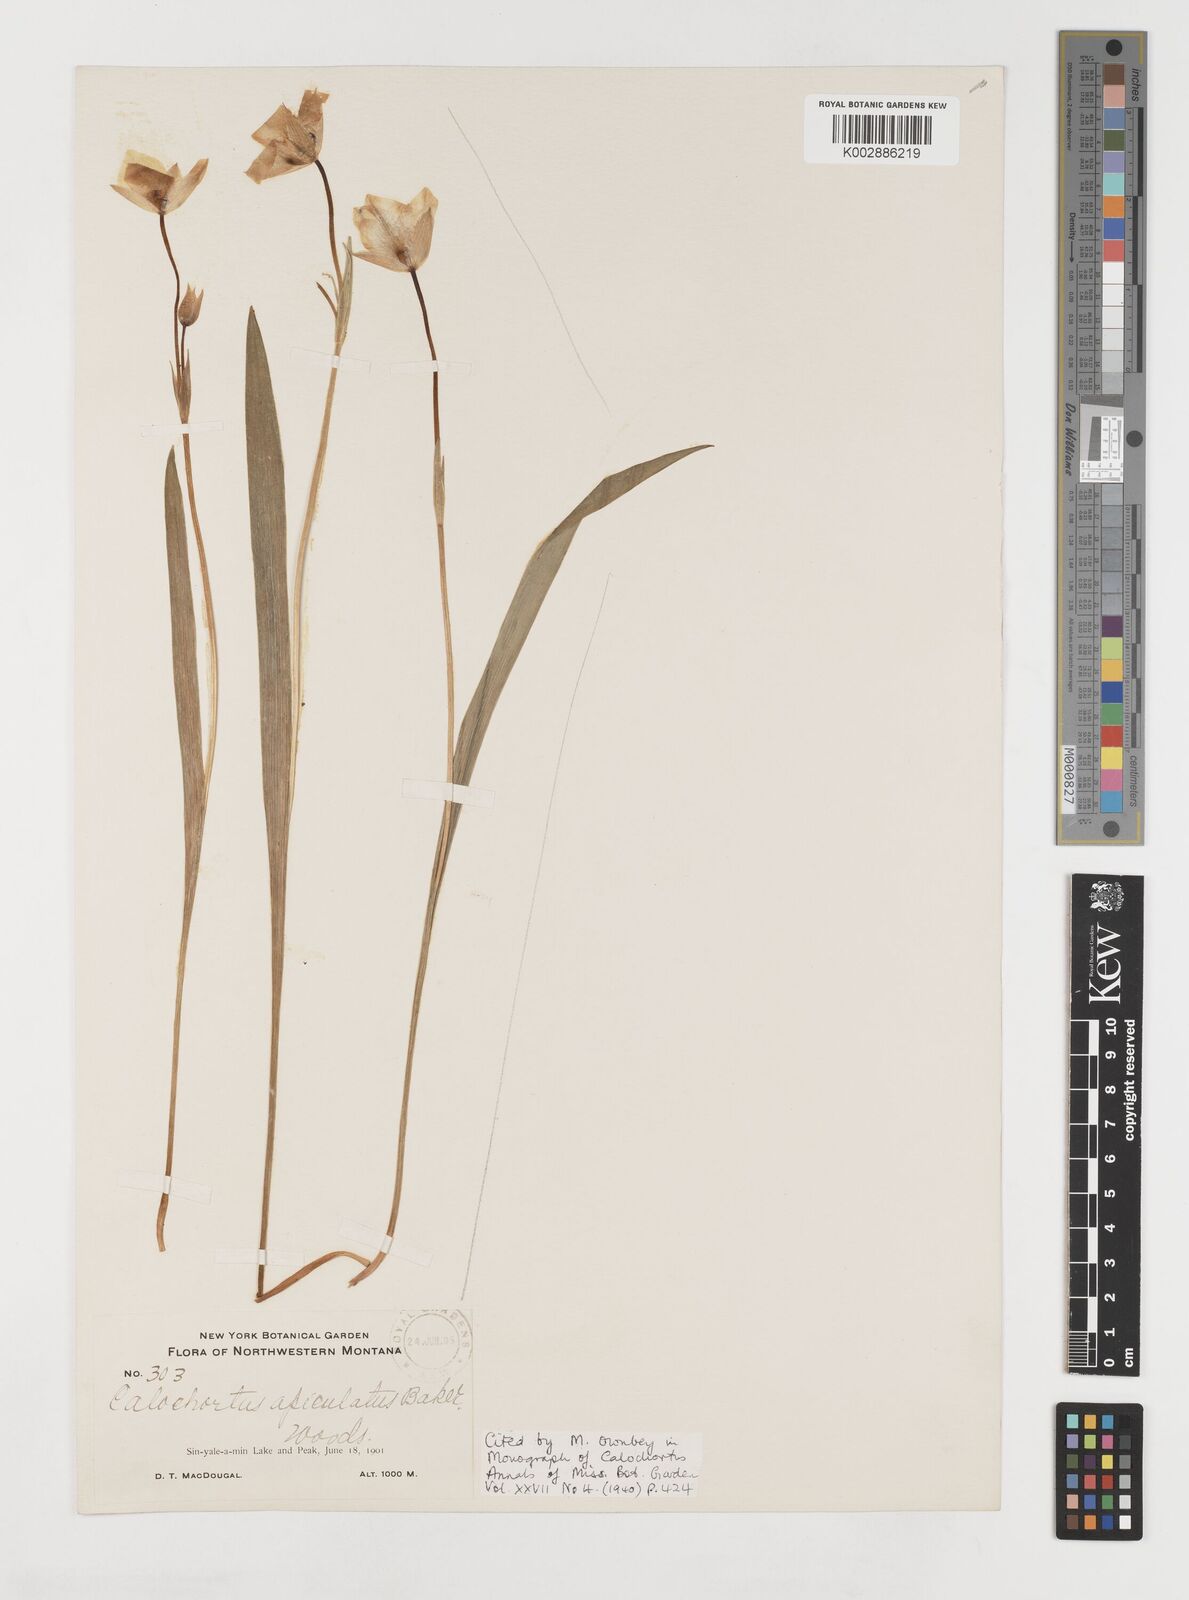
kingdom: Plantae
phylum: Tracheophyta
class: Liliopsida
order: Liliales
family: Liliaceae
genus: Calochortus
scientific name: Calochortus apiculatus
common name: Baker's mariposa lily
